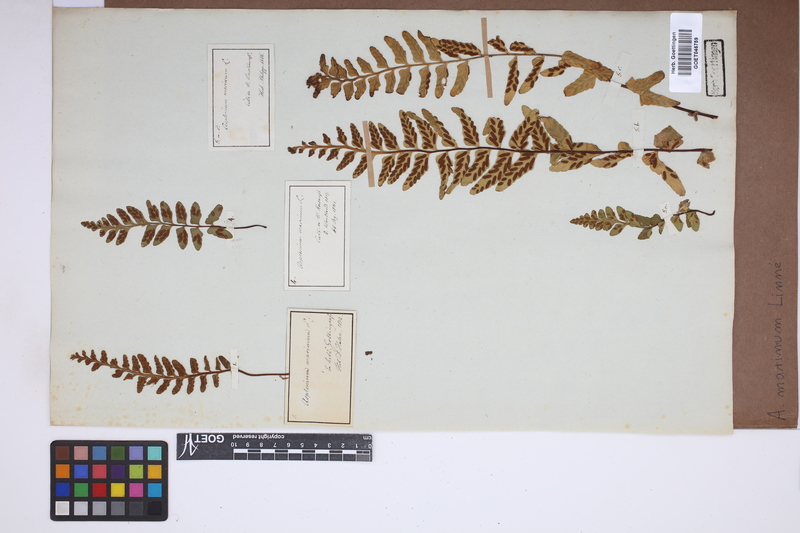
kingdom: Plantae
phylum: Tracheophyta
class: Polypodiopsida
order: Polypodiales
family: Aspleniaceae
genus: Asplenium
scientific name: Asplenium marinum
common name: Sea spleenwort
